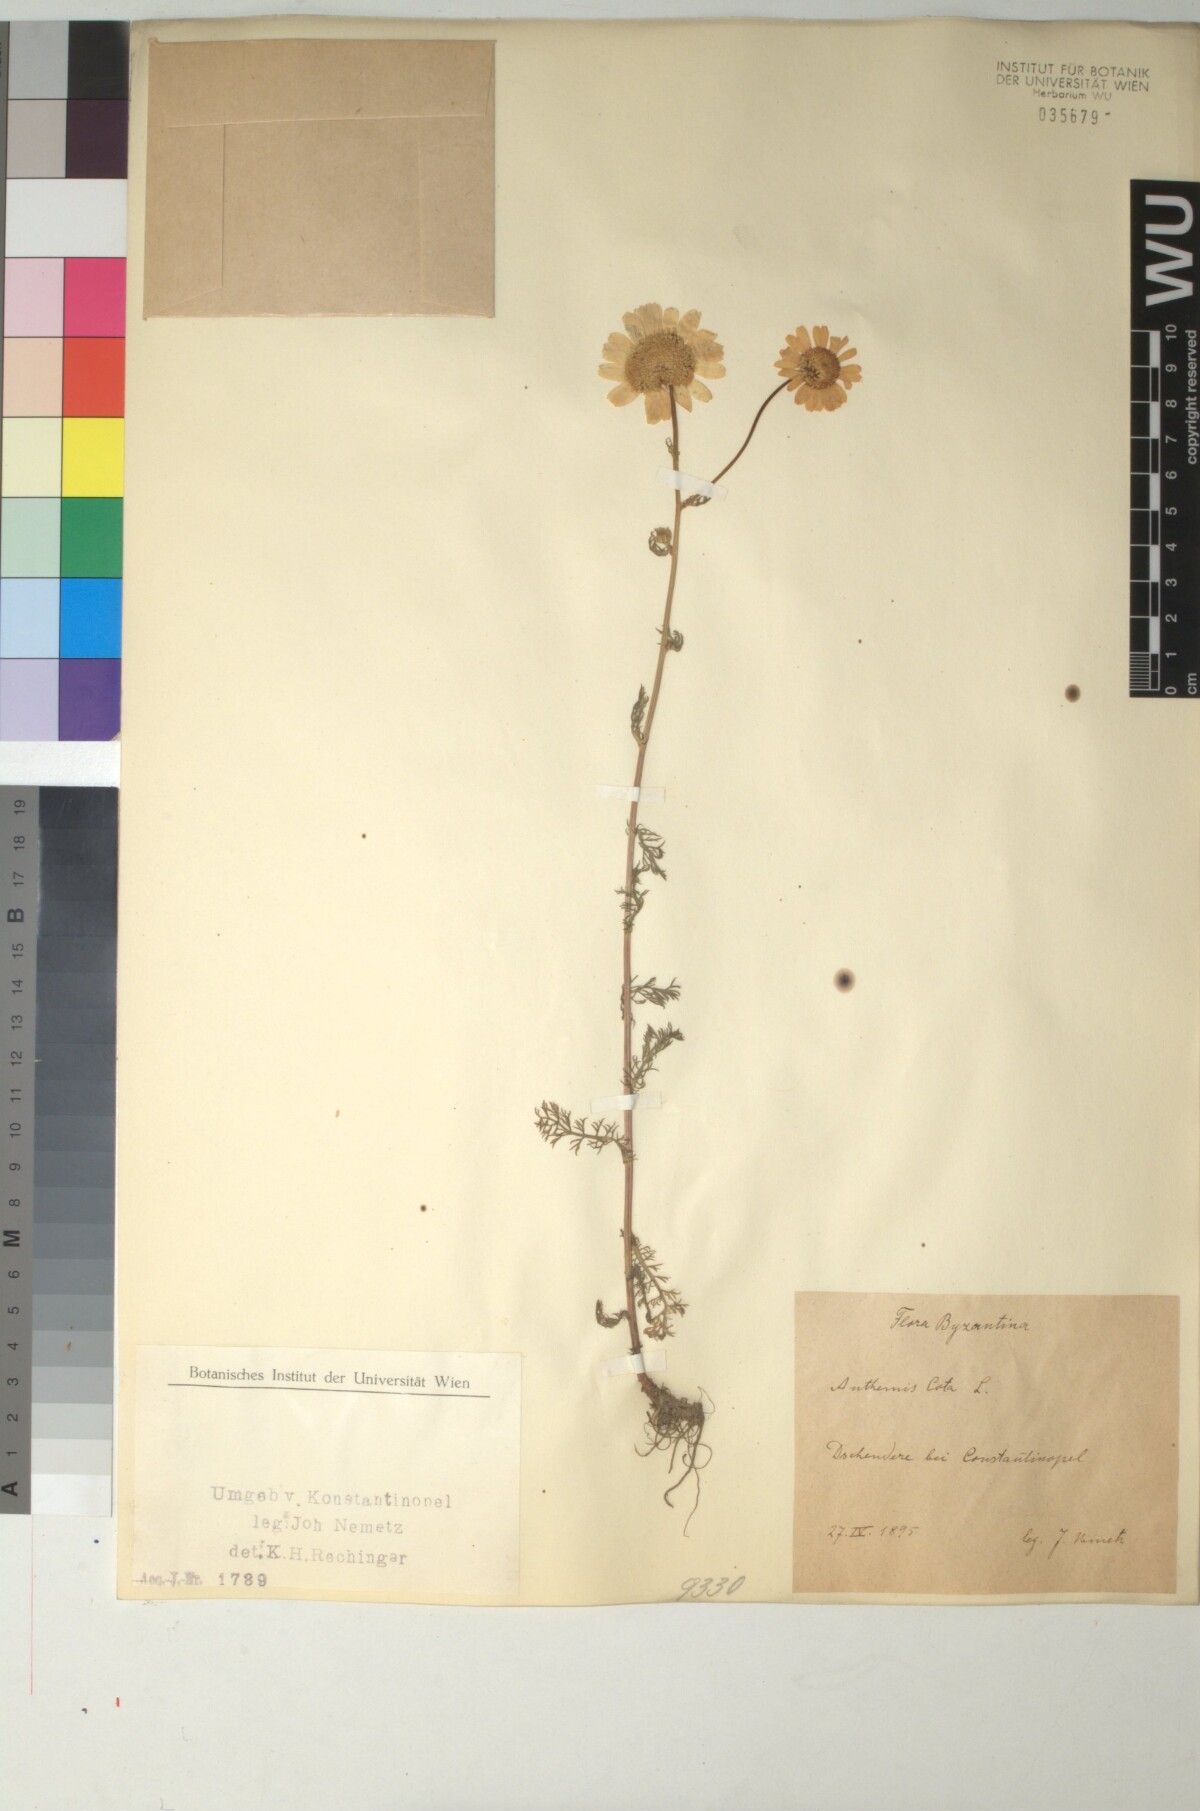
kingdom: Plantae
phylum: Tracheophyta
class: Magnoliopsida
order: Asterales
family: Asteraceae
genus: Cota
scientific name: Cota altissima
